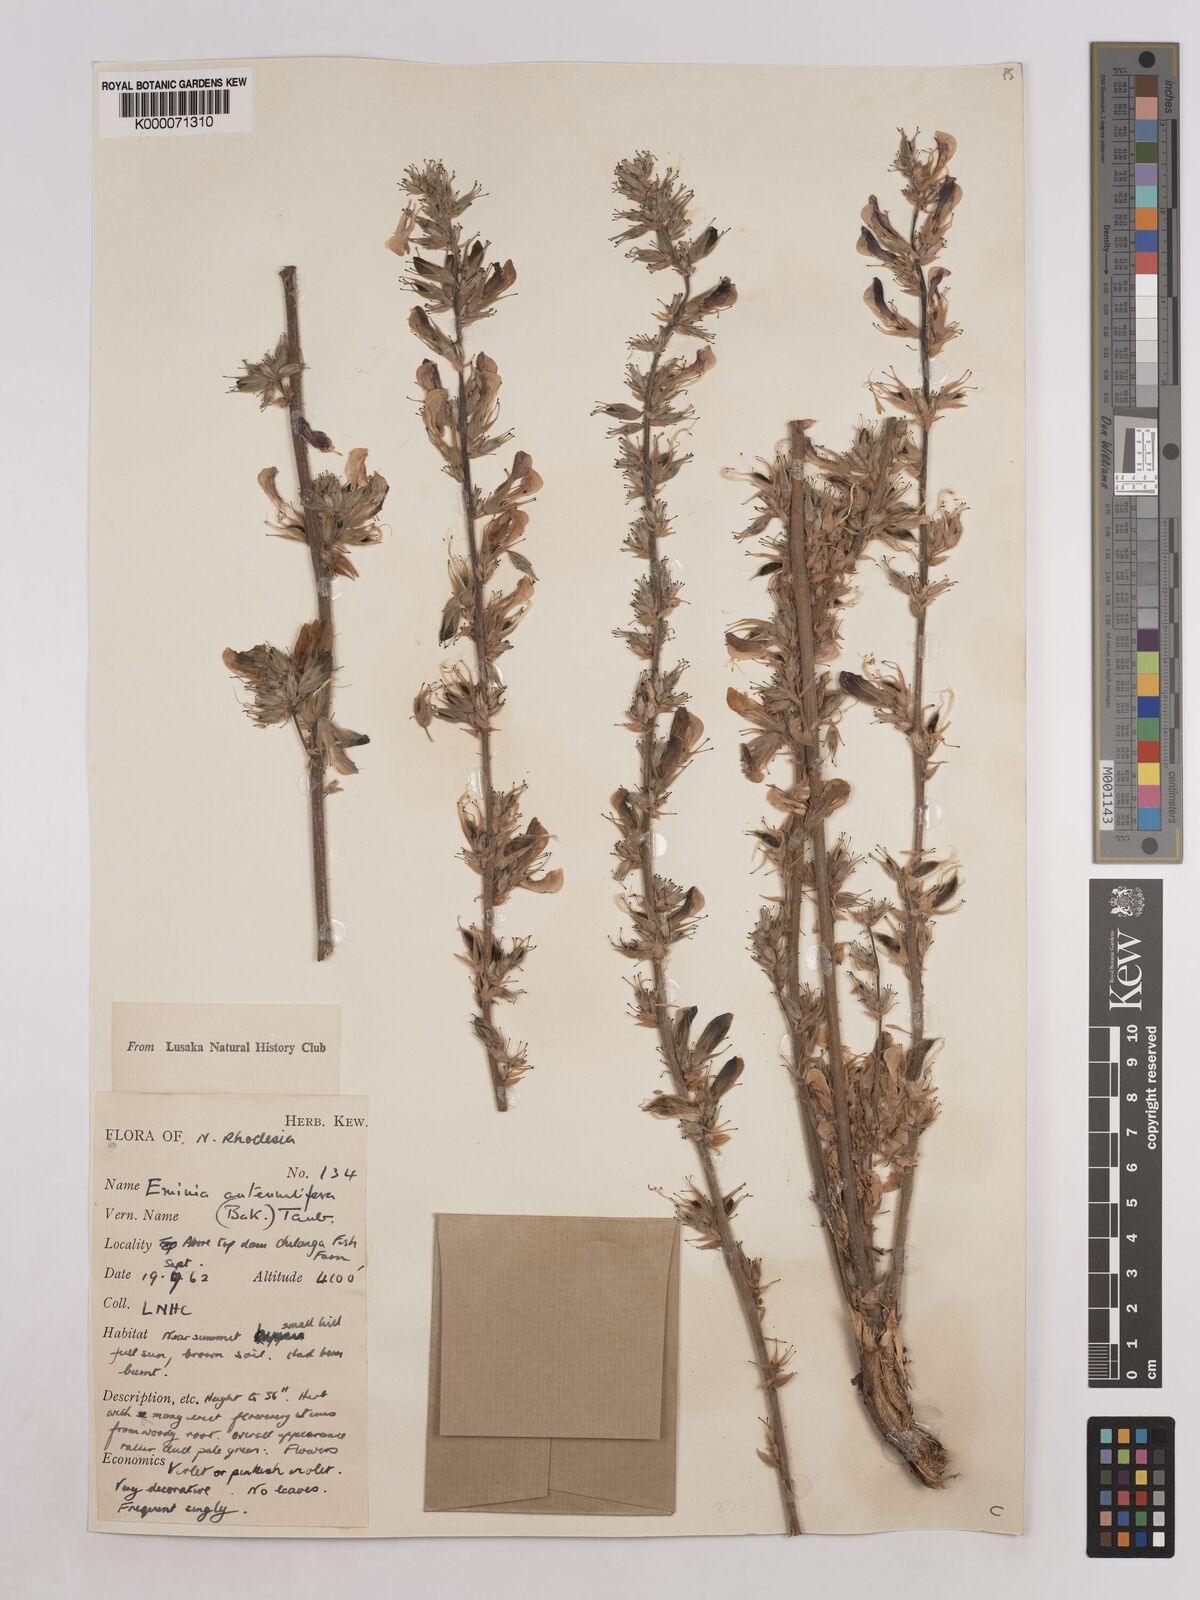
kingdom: Plantae
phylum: Tracheophyta
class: Magnoliopsida
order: Fabales
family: Fabaceae
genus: Eminia
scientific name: Eminia antennulifera
